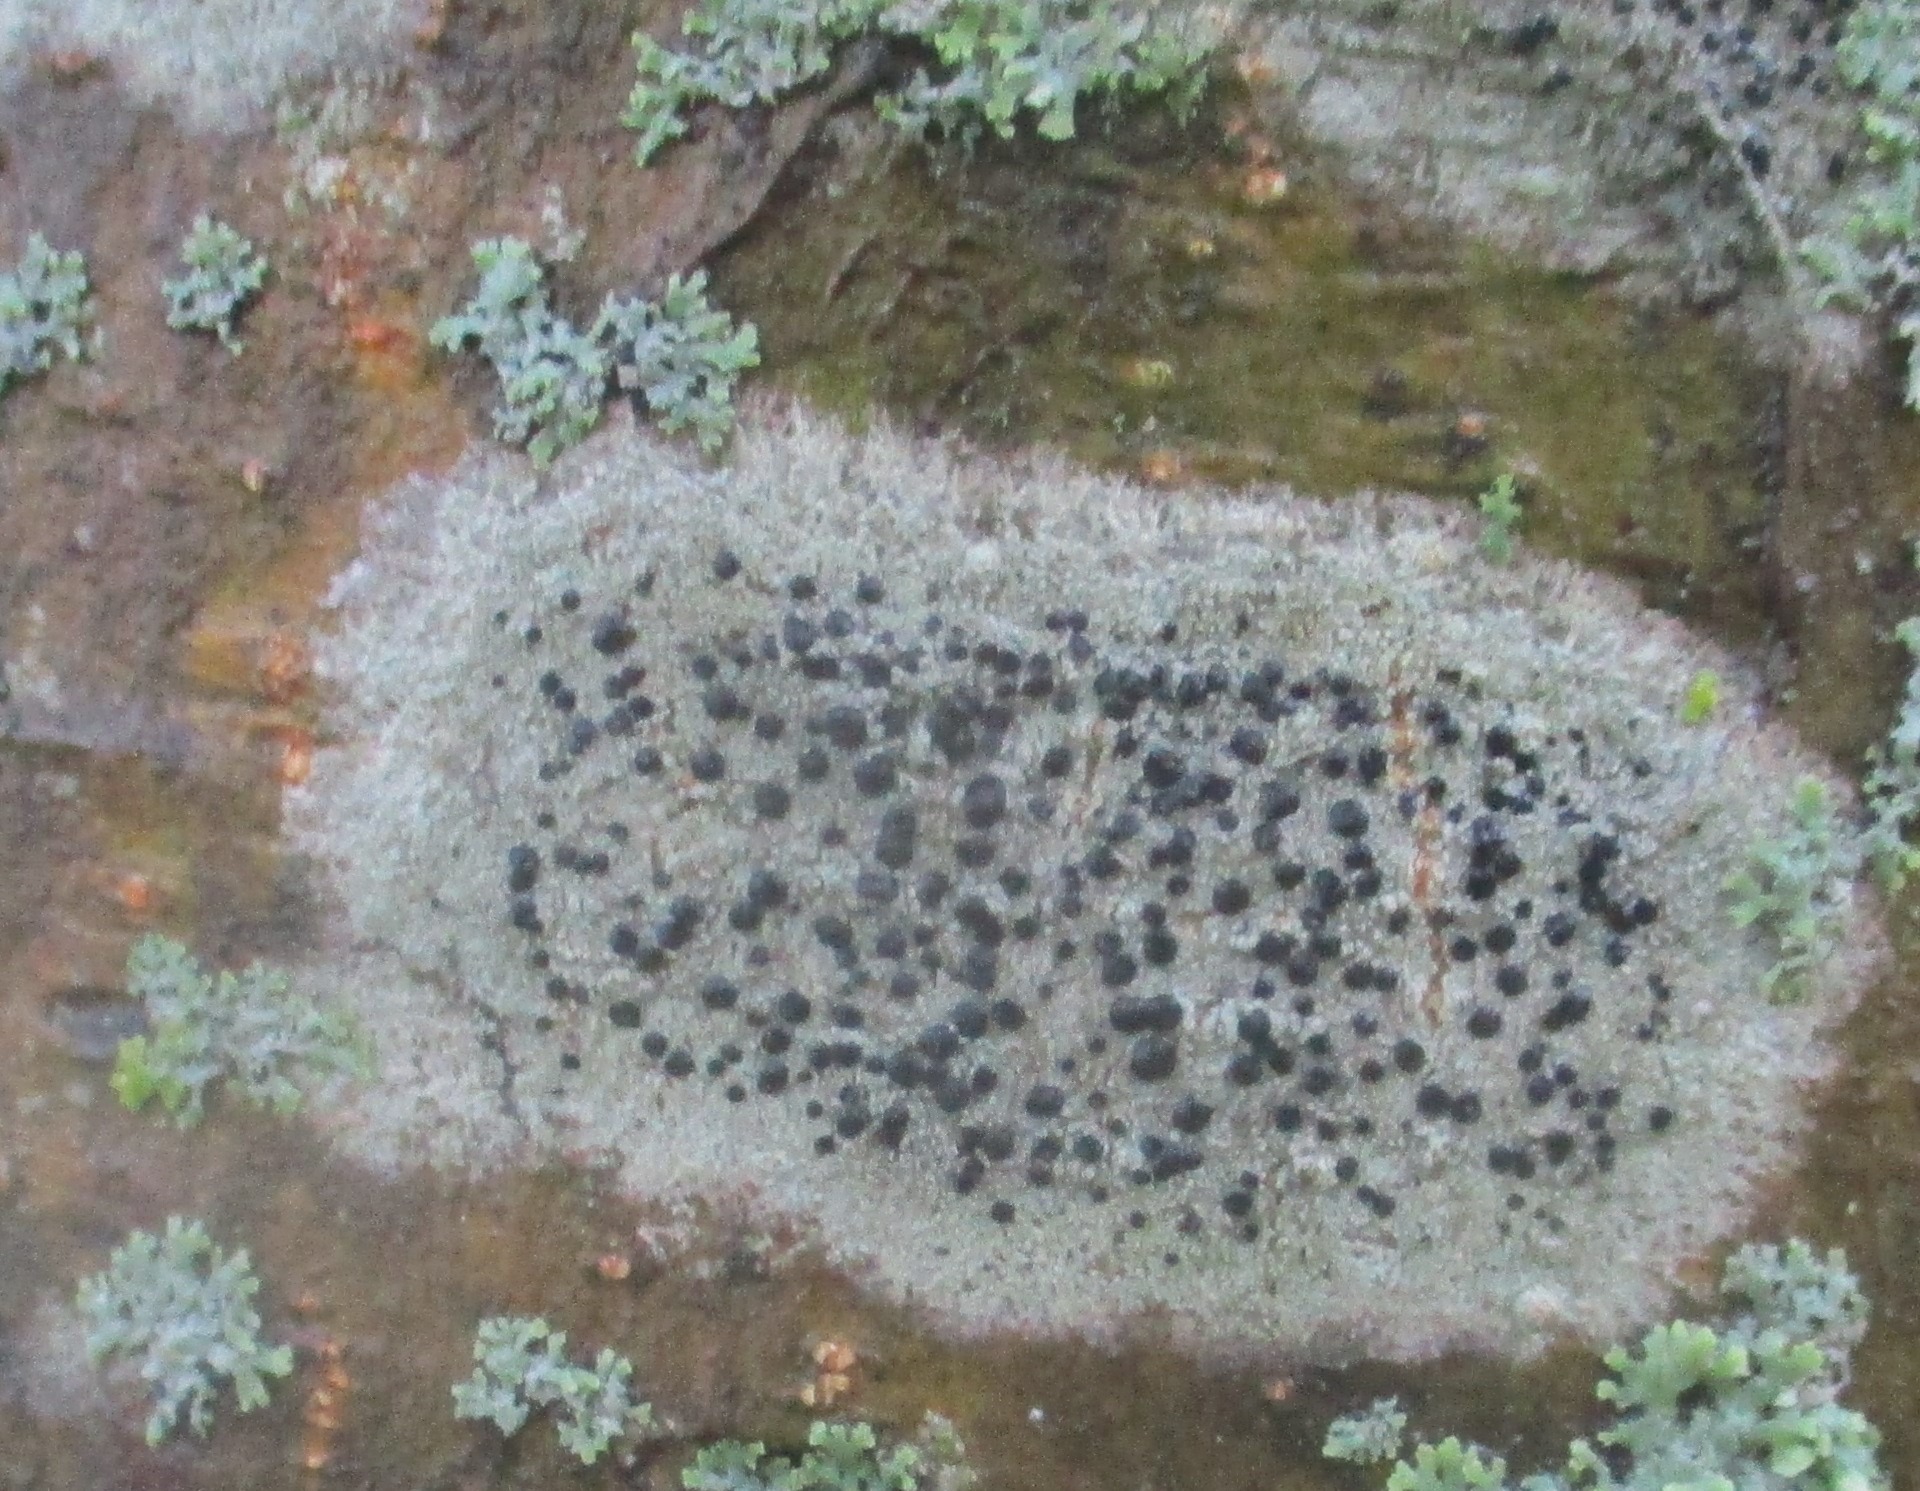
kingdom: Fungi
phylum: Ascomycota
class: Lecanoromycetes
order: Lecanorales
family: Lecanoraceae
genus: Lecidella
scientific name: Lecidella elaeochroma
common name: Grågrøn skivelav
